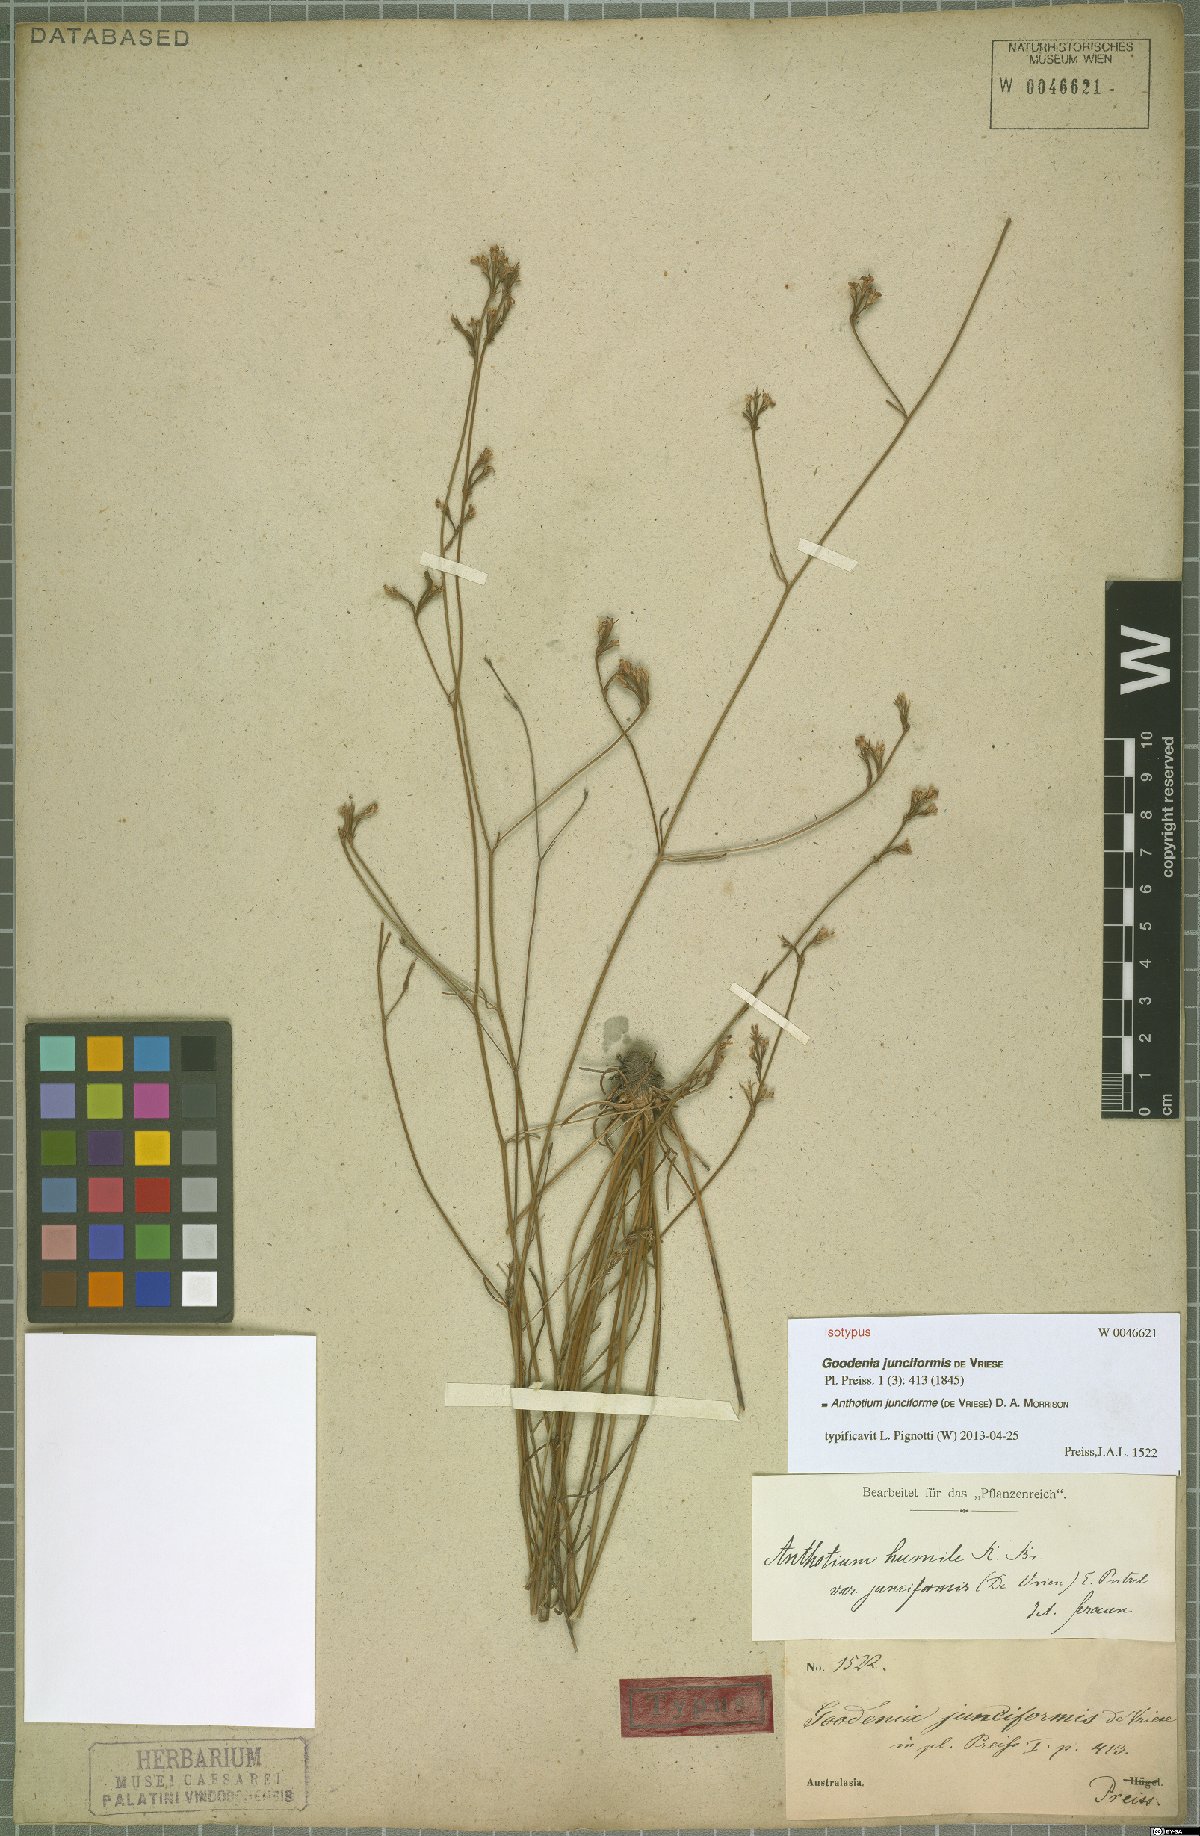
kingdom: Plantae
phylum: Tracheophyta
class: Magnoliopsida
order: Asterales
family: Goodeniaceae
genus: Anthotium
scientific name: Anthotium junciforme
